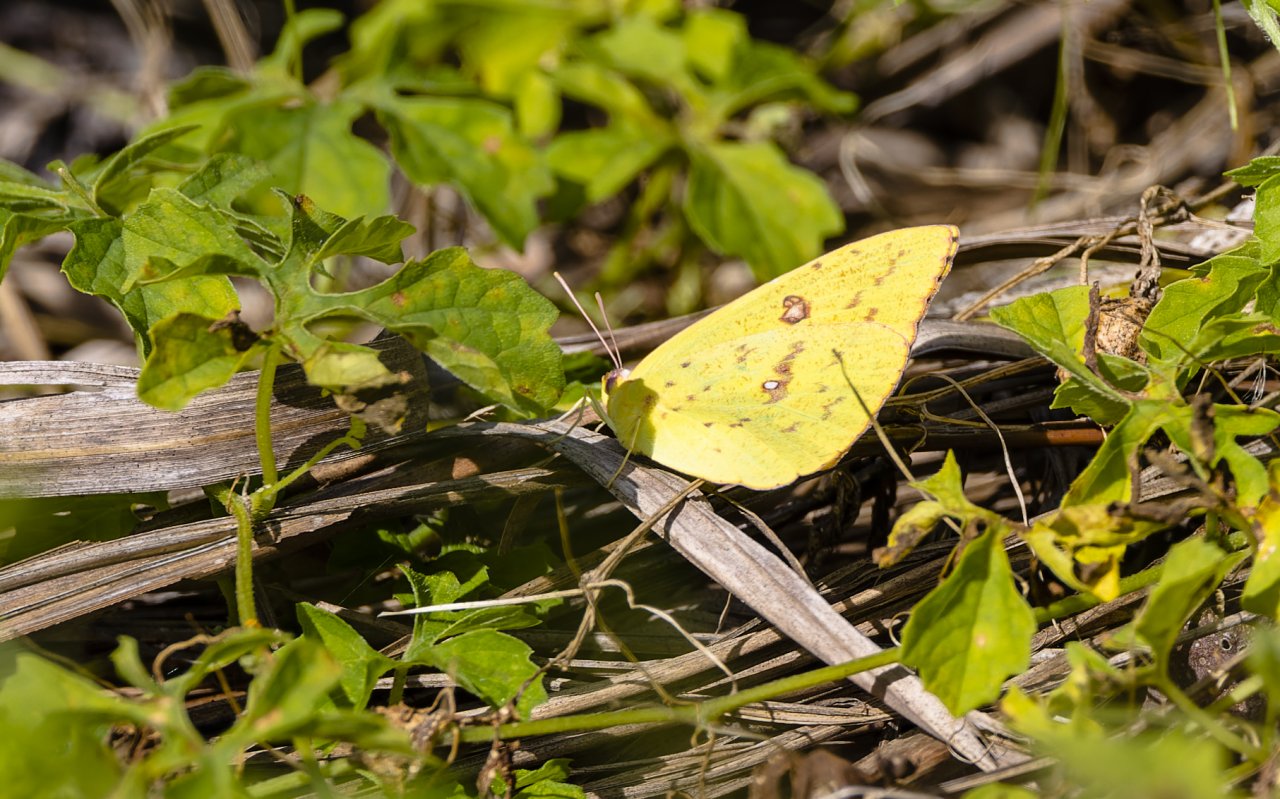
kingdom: Animalia
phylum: Arthropoda
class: Insecta
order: Lepidoptera
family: Pieridae
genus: Phoebis
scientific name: Phoebis sennae
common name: Cloudless Sulphur
